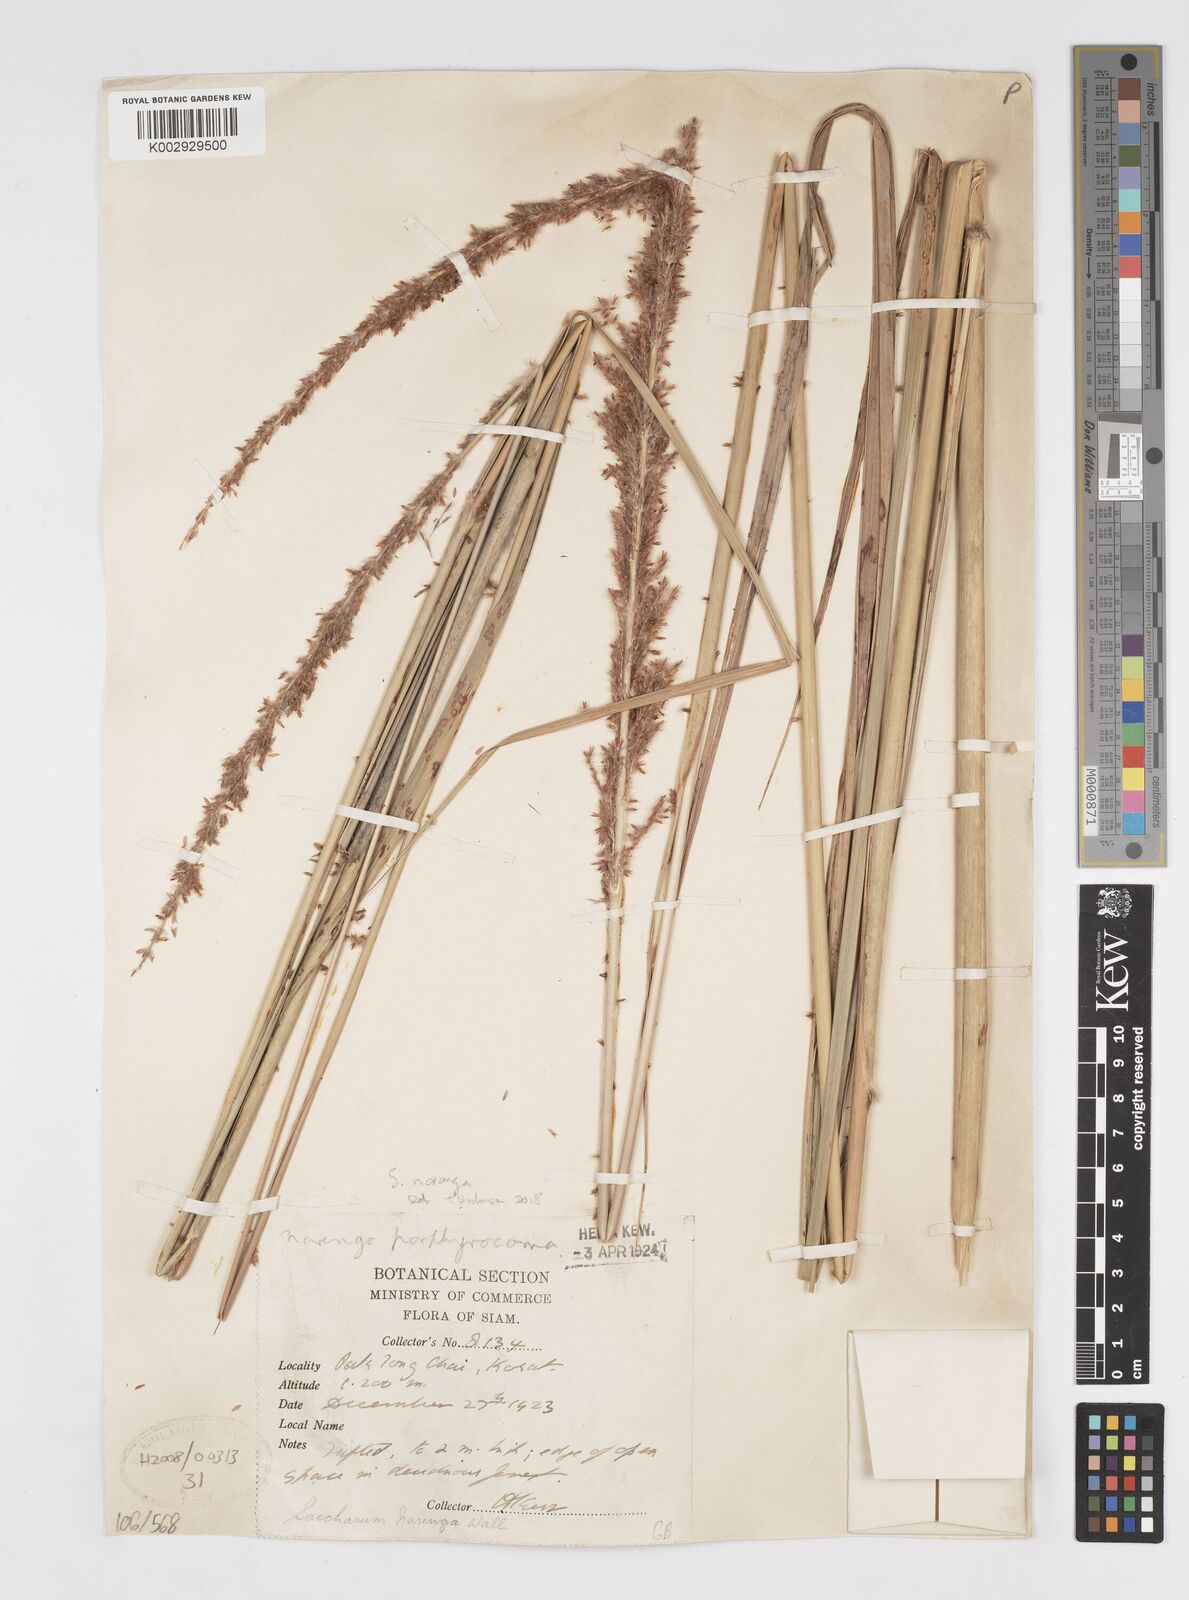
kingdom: Plantae
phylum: Tracheophyta
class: Liliopsida
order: Poales
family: Poaceae
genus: Narenga
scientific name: Narenga porphyrocoma
